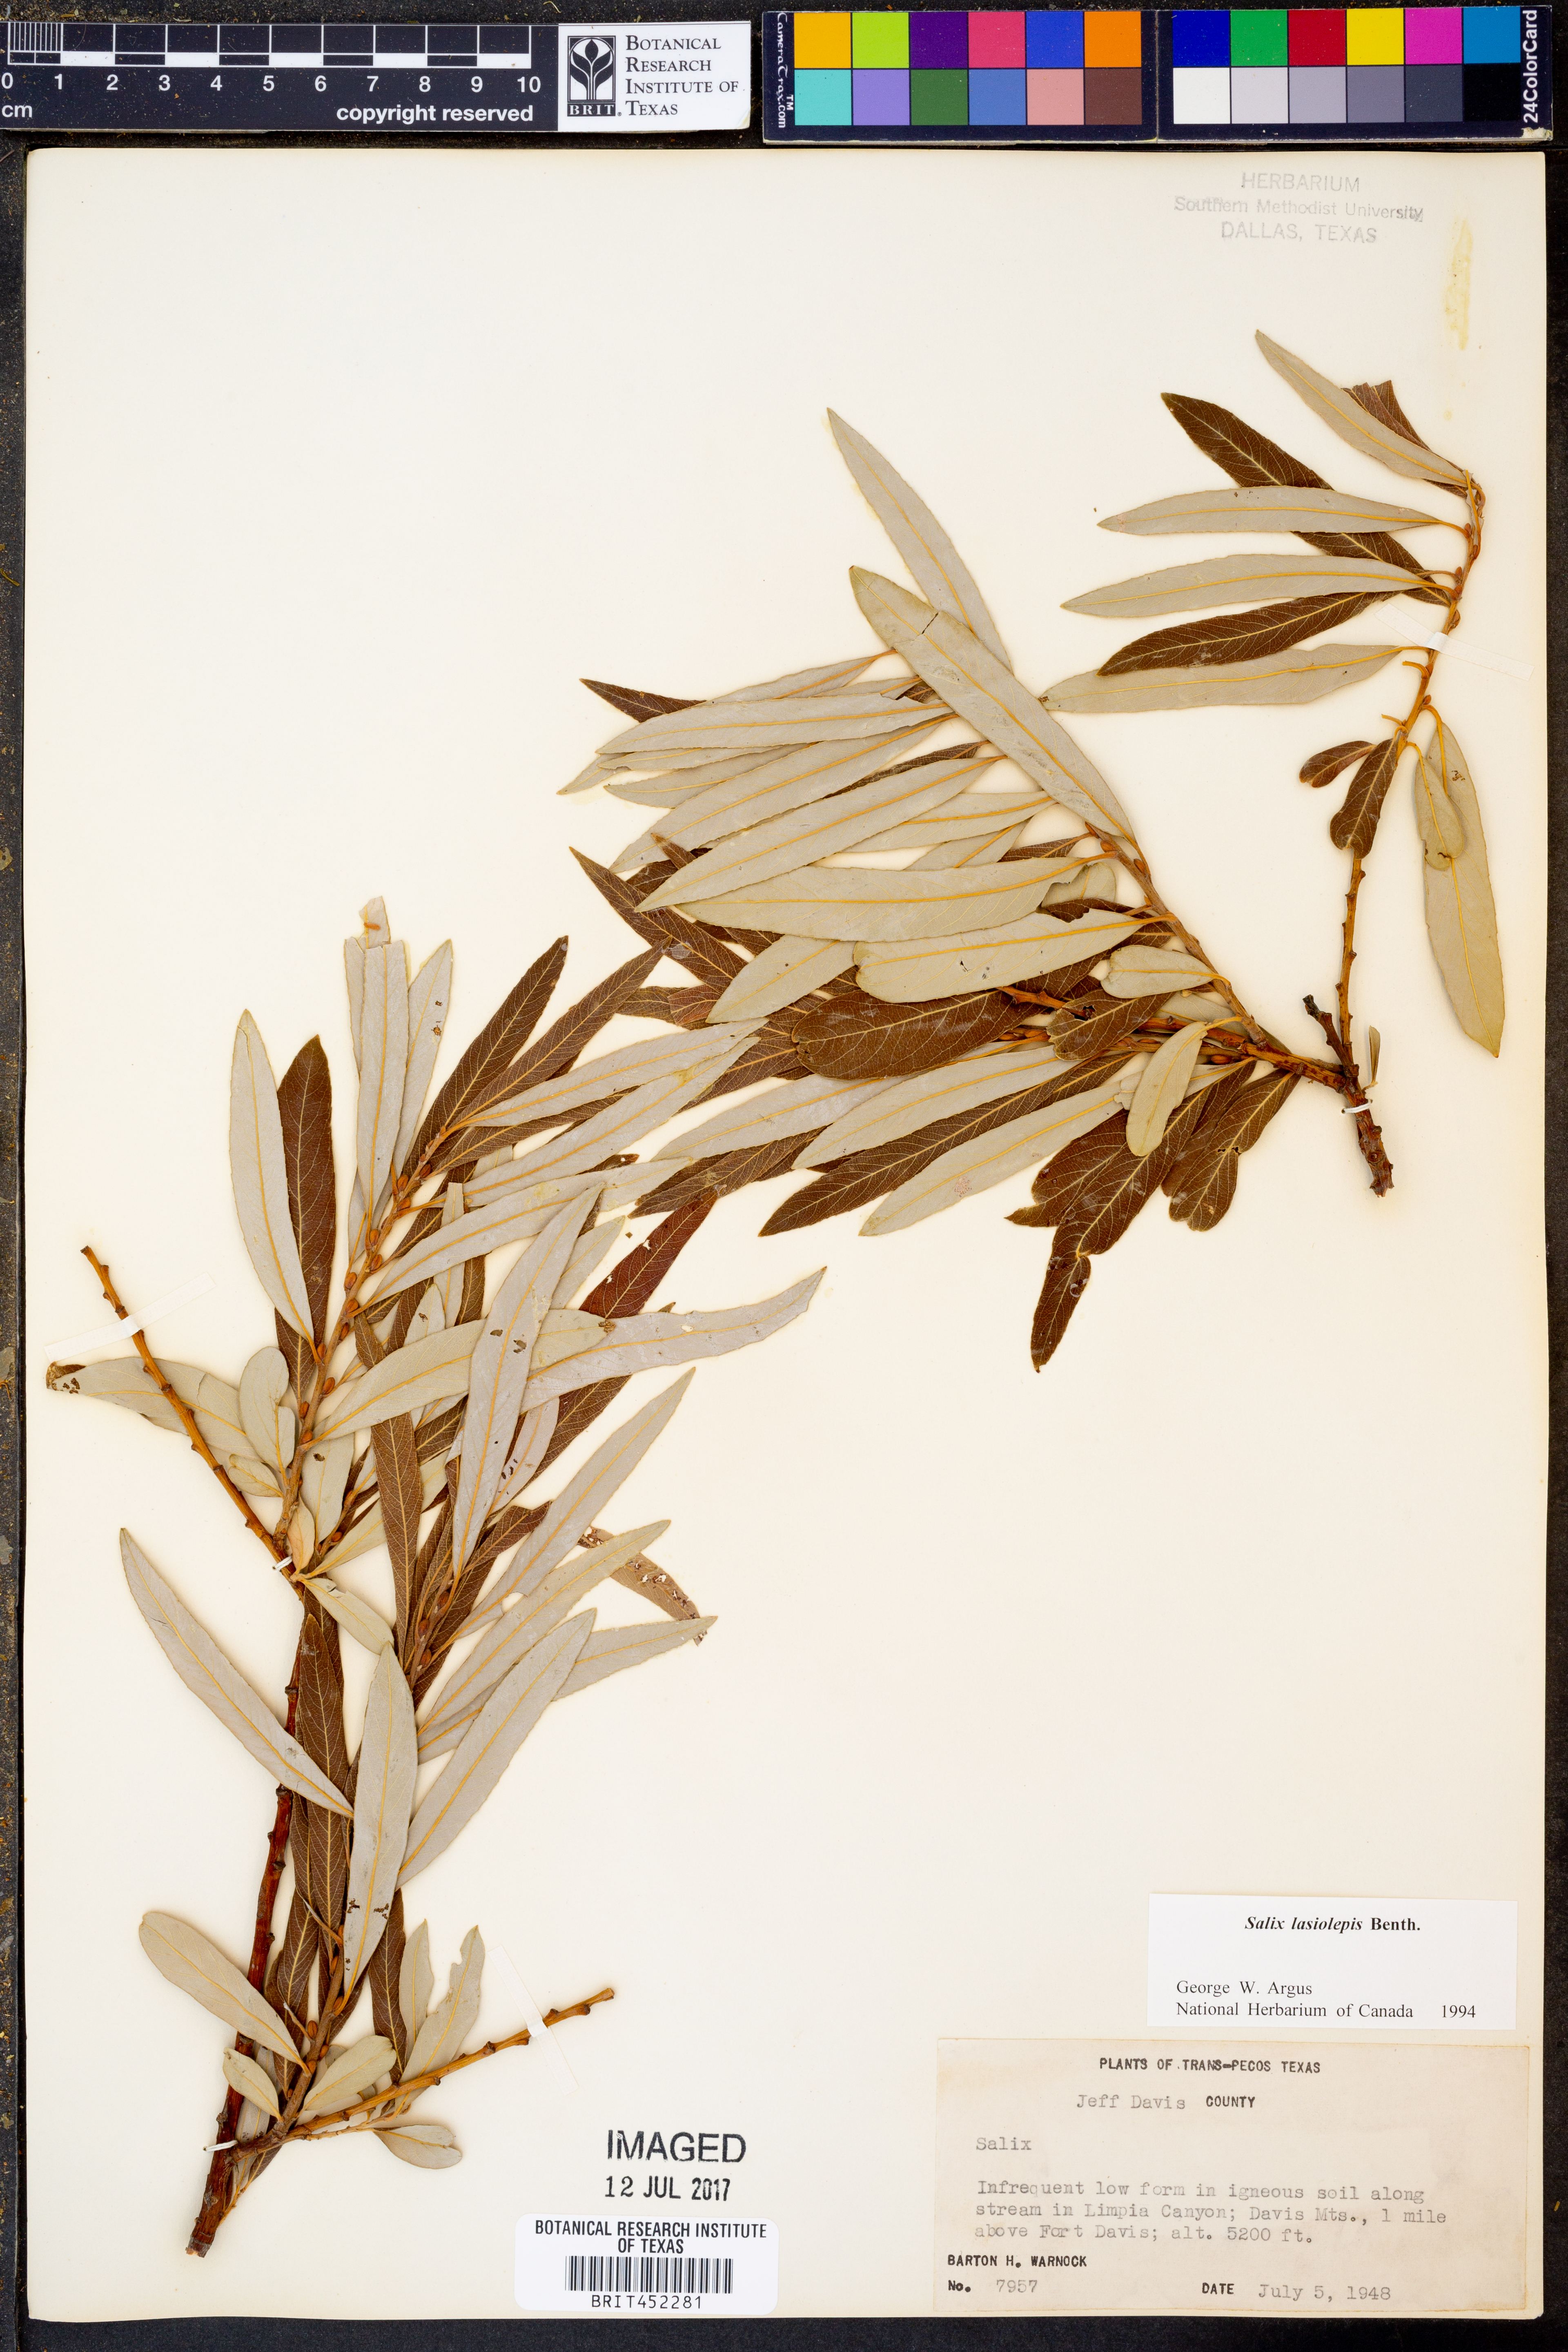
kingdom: Plantae
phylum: Tracheophyta
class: Magnoliopsida
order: Malpighiales
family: Salicaceae
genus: Salix
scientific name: Salix lasiolepis
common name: Arroyo willow
